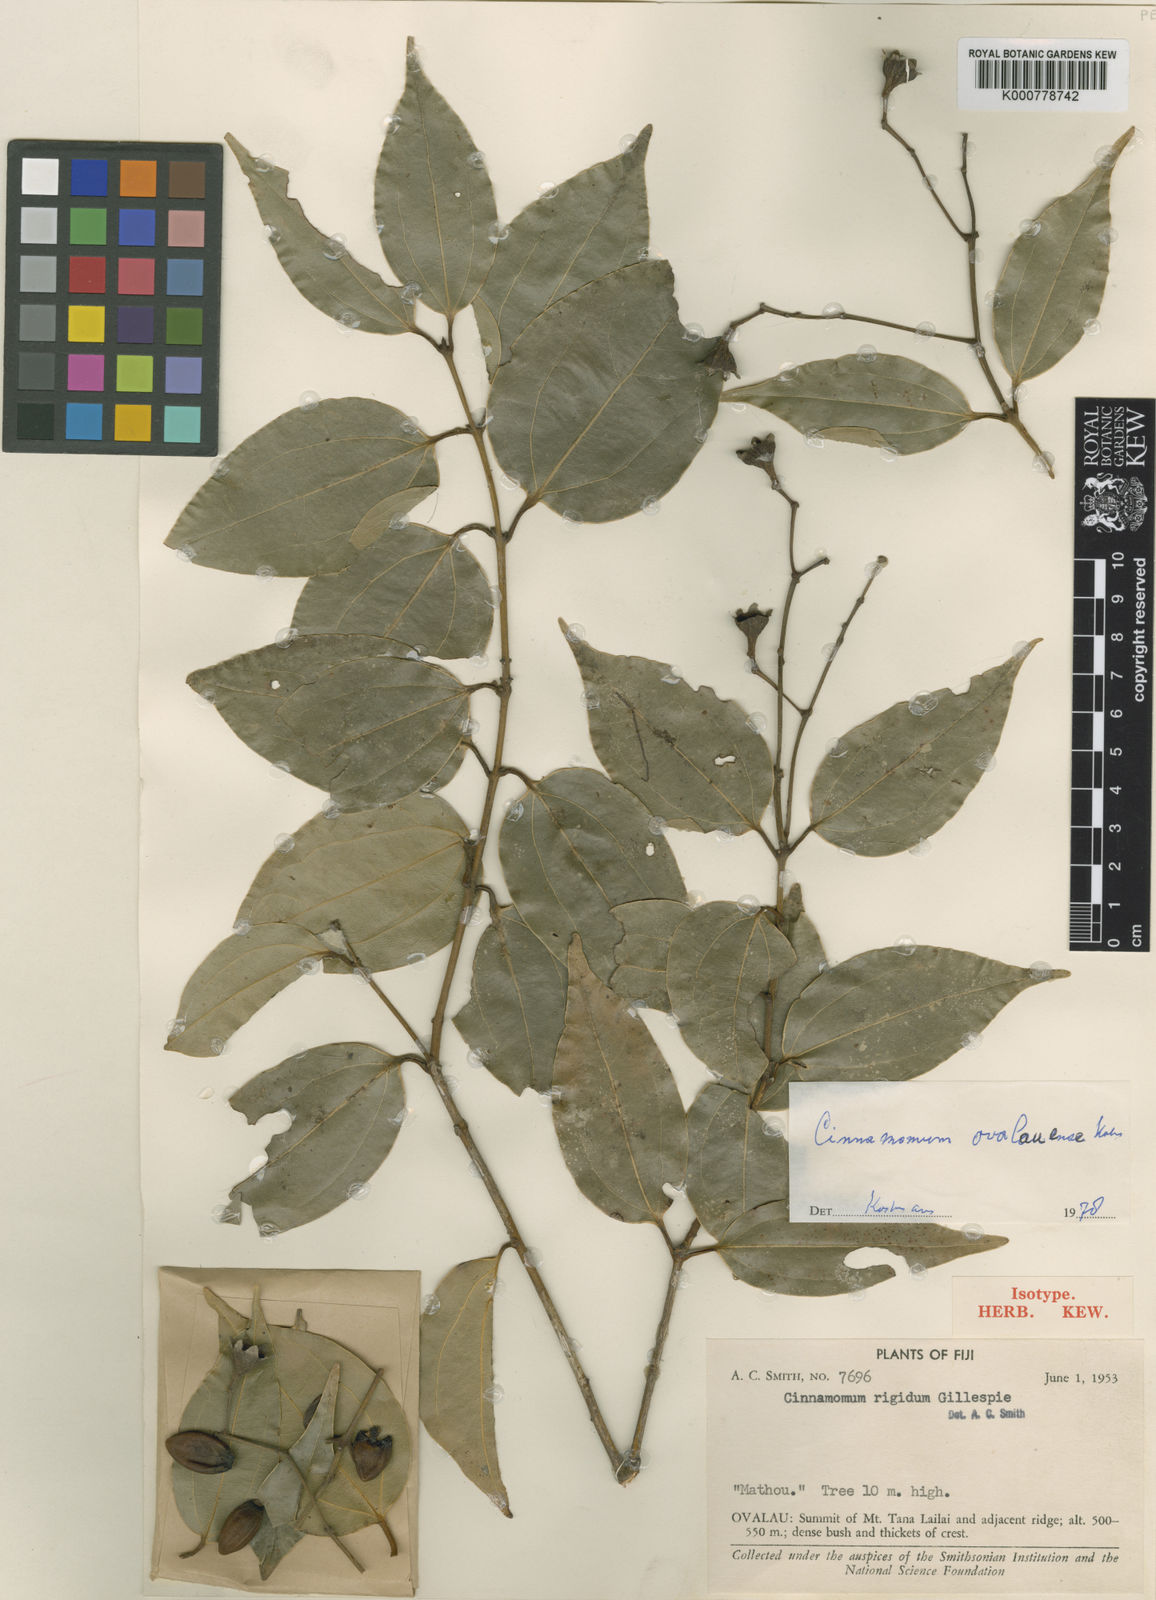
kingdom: Plantae
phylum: Tracheophyta
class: Magnoliopsida
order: Laurales
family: Lauraceae
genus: Cinnamomum
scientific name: Cinnamomum ovalauense
